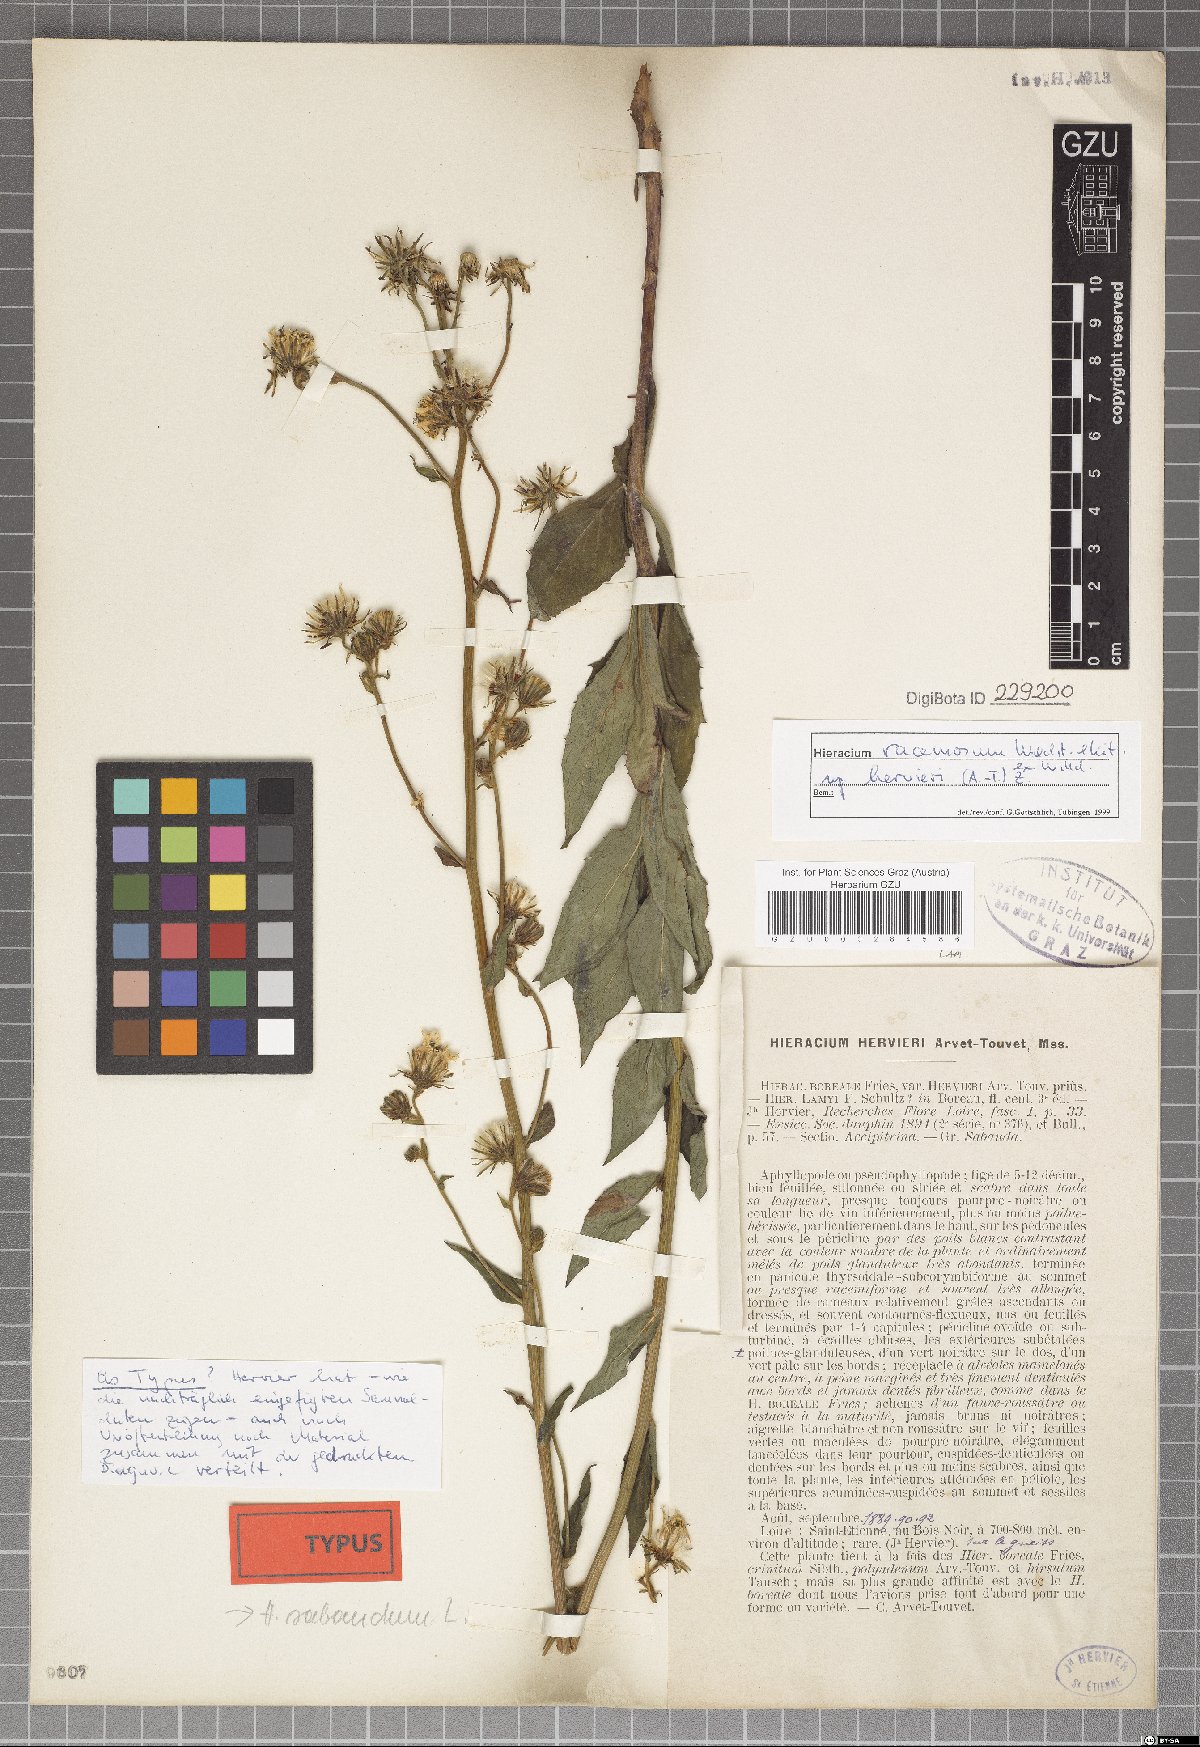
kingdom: Plantae
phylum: Tracheophyta
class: Magnoliopsida
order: Asterales
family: Asteraceae
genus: Hieracium
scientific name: Hieracium racemosum
